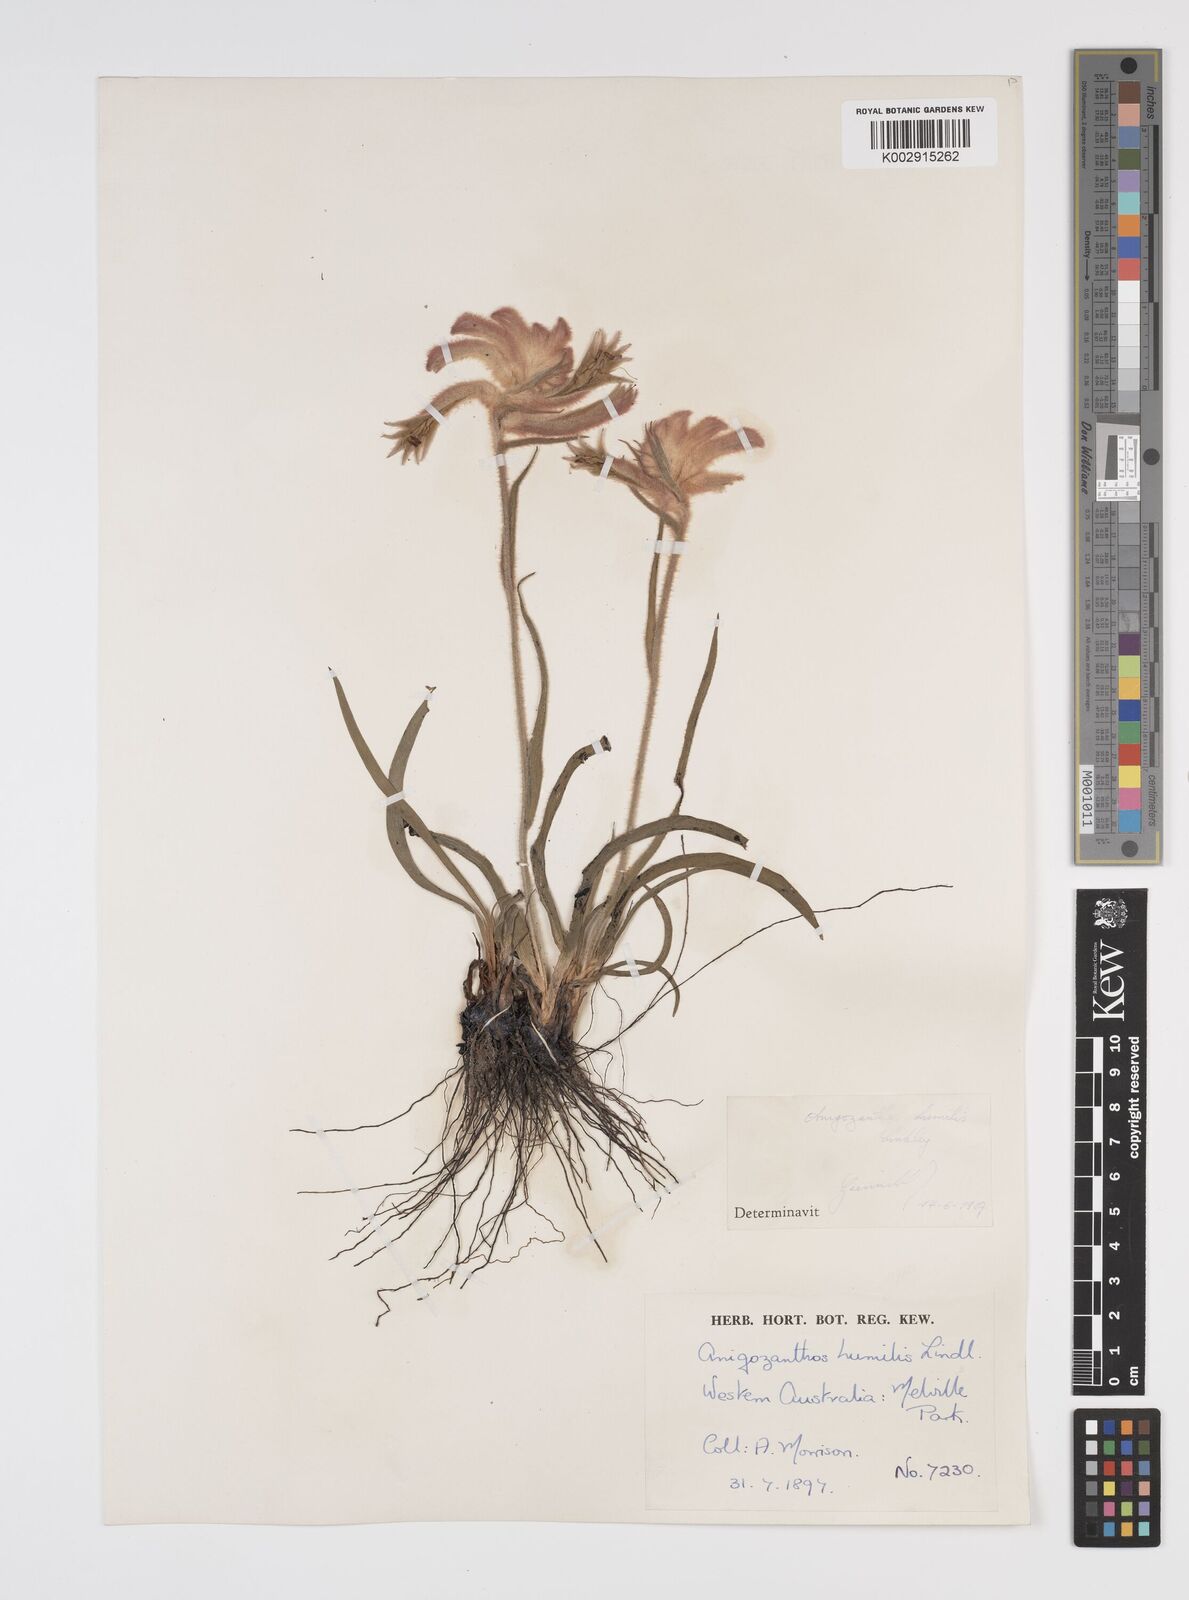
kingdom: Plantae
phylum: Tracheophyta
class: Liliopsida
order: Commelinales
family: Haemodoraceae
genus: Anigozanthos
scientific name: Anigozanthos humilis
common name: Cat's-paw
